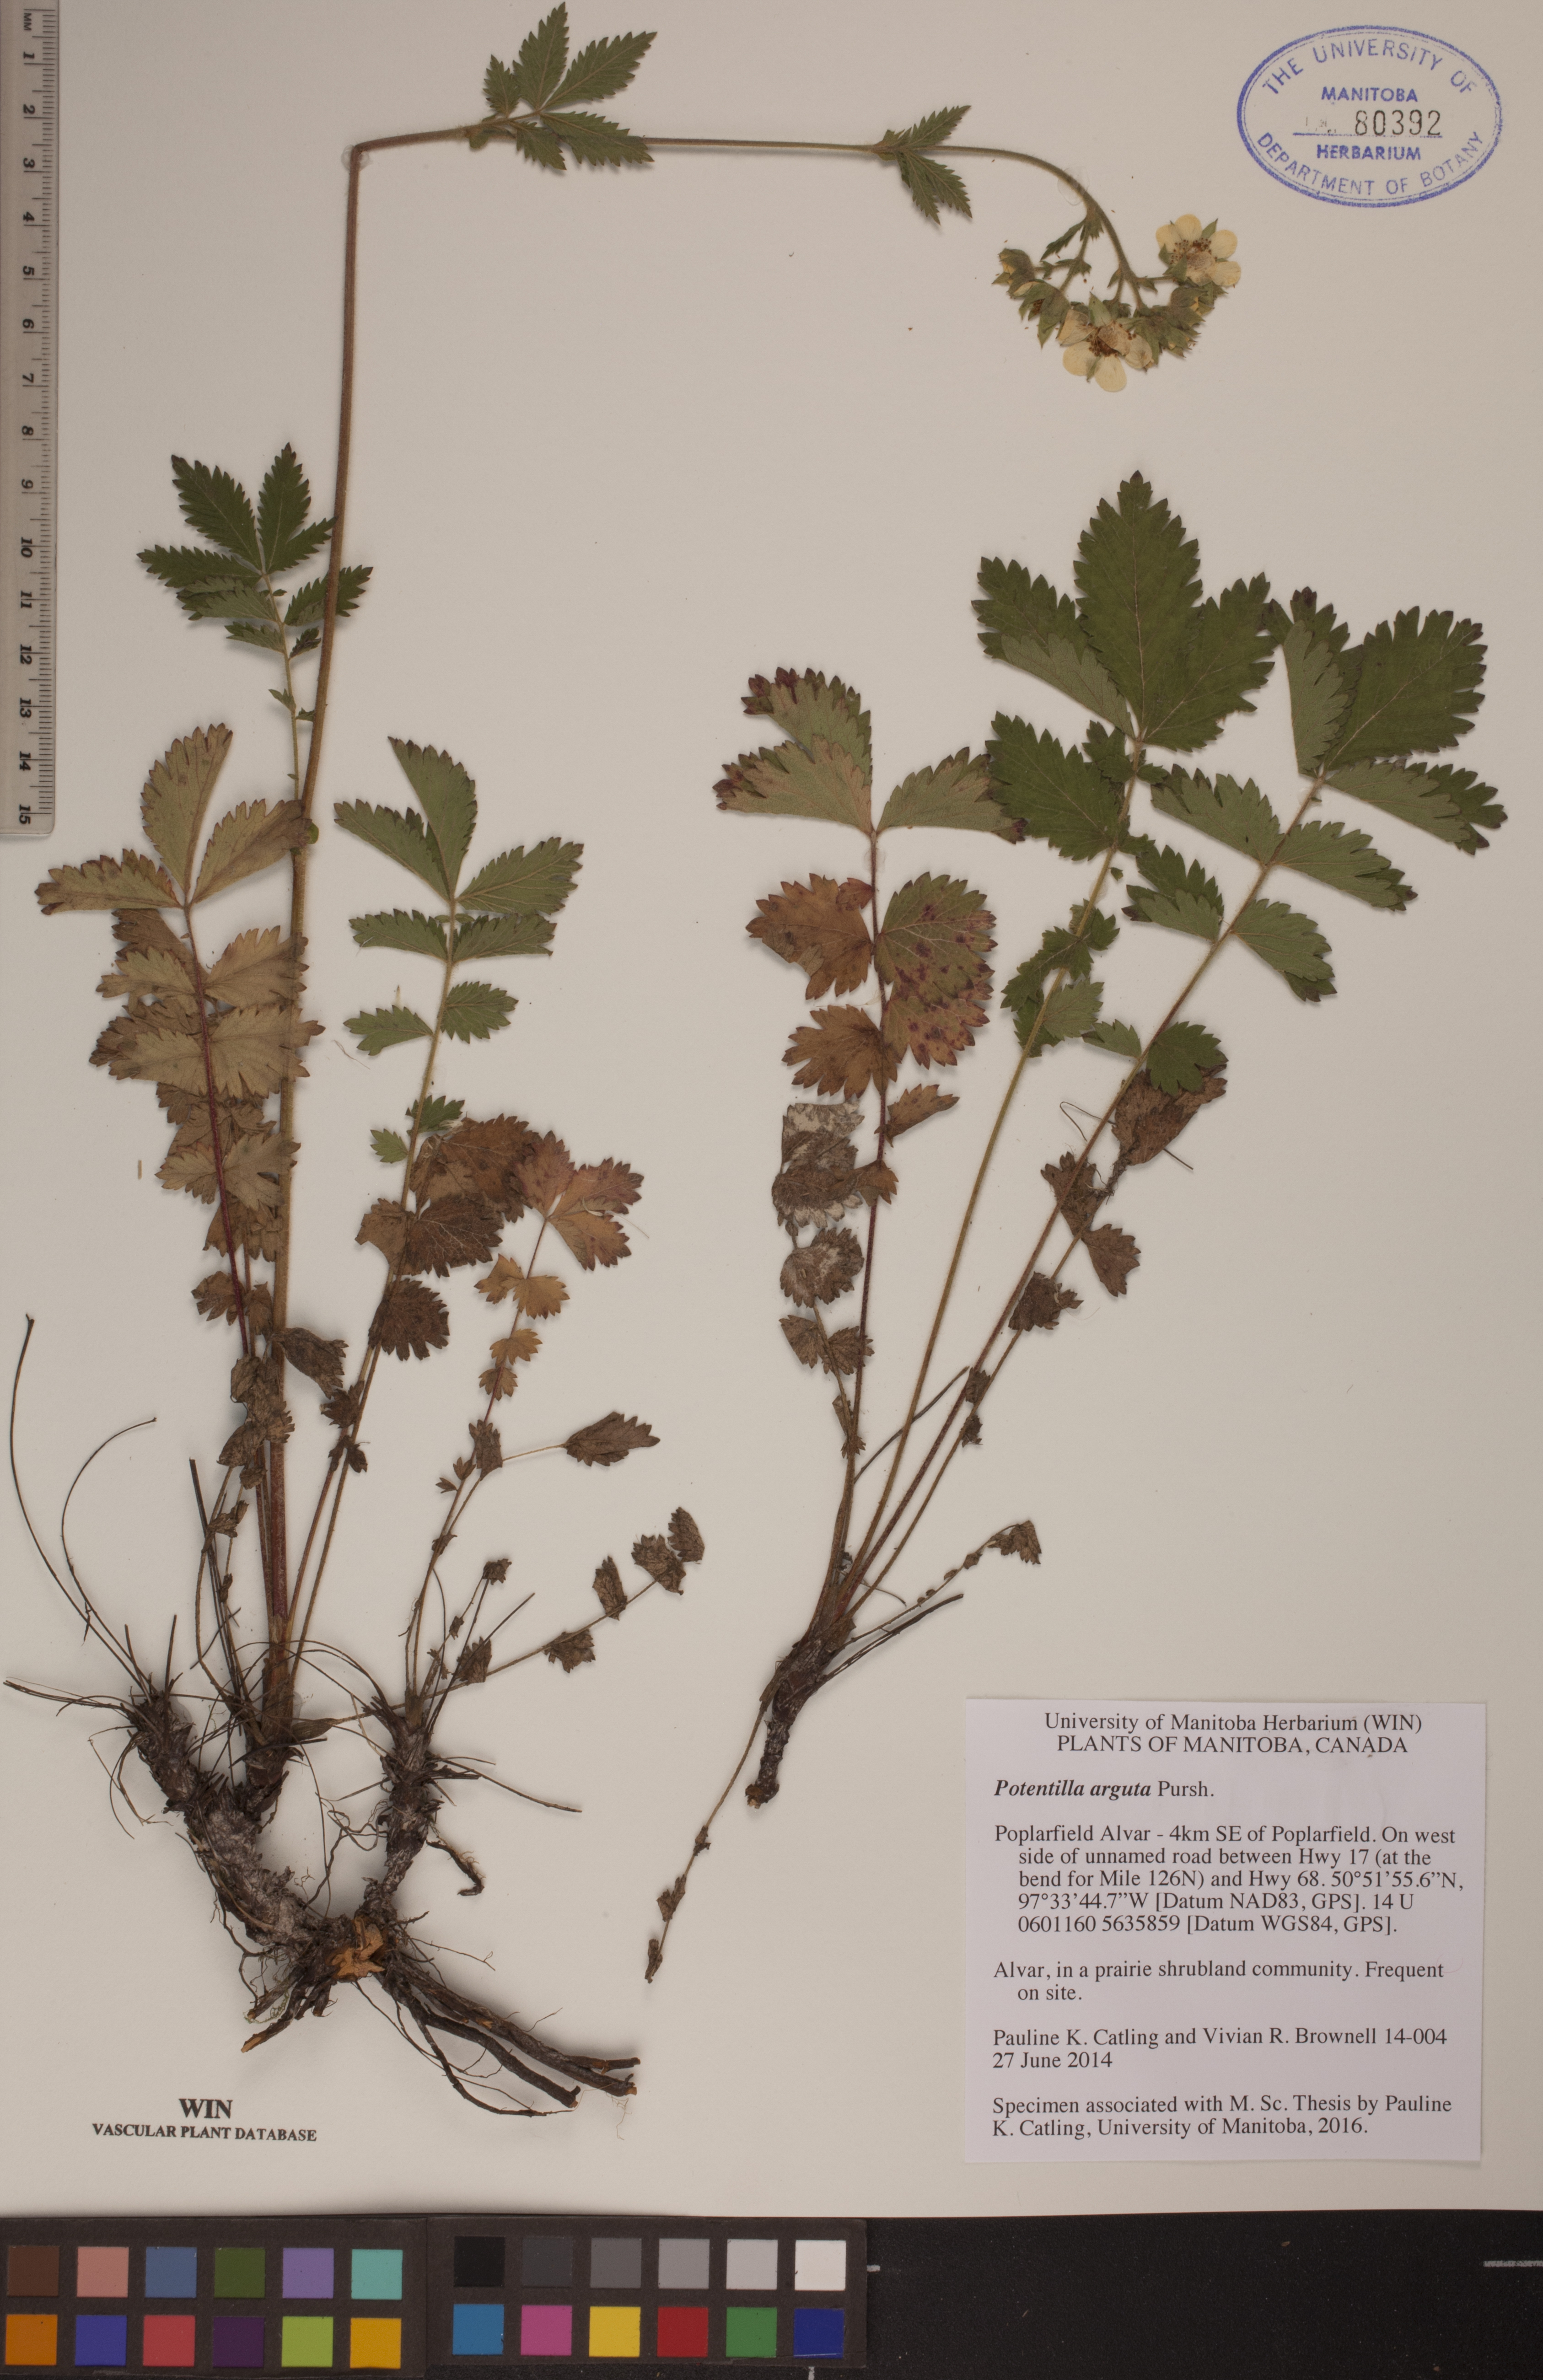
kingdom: Plantae
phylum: Tracheophyta
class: Magnoliopsida
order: Rosales
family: Rosaceae
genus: Drymocallis
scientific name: Drymocallis arguta
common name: Tall cinquefoil
